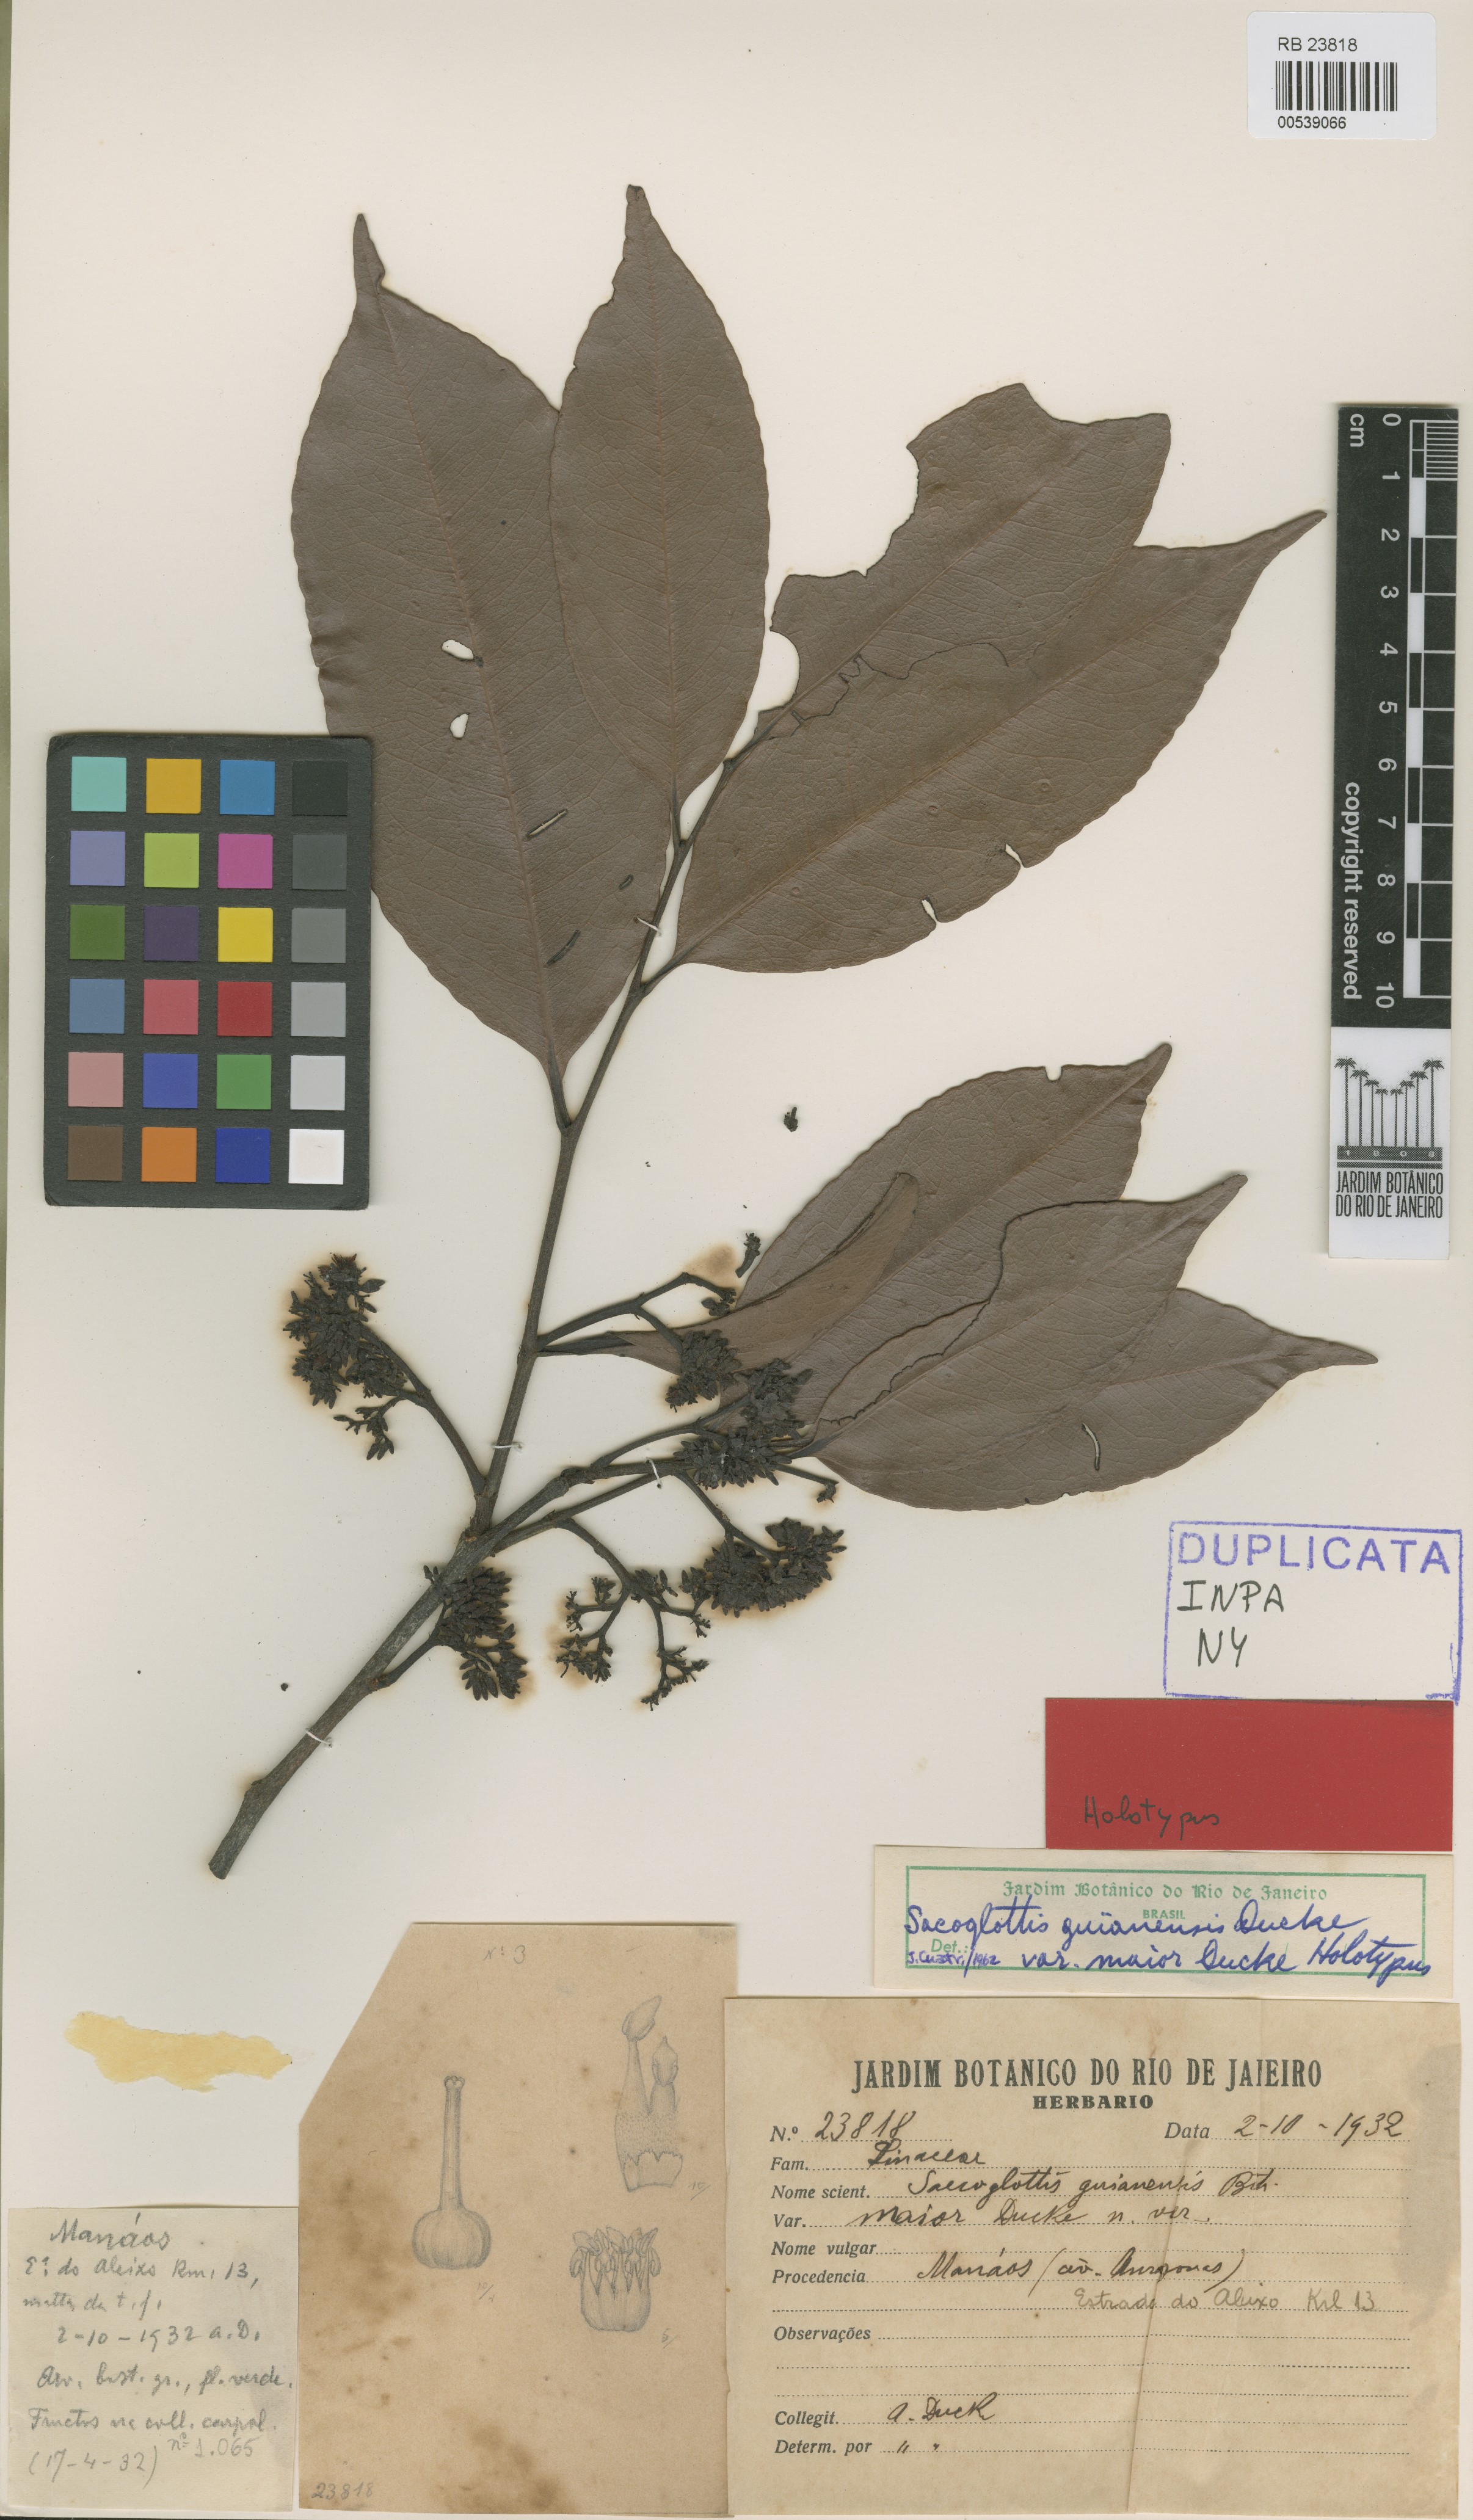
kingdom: Plantae
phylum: Tracheophyta
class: Magnoliopsida
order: Malpighiales
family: Humiriaceae
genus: Sacoglottis
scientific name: Sacoglottis guianensis
